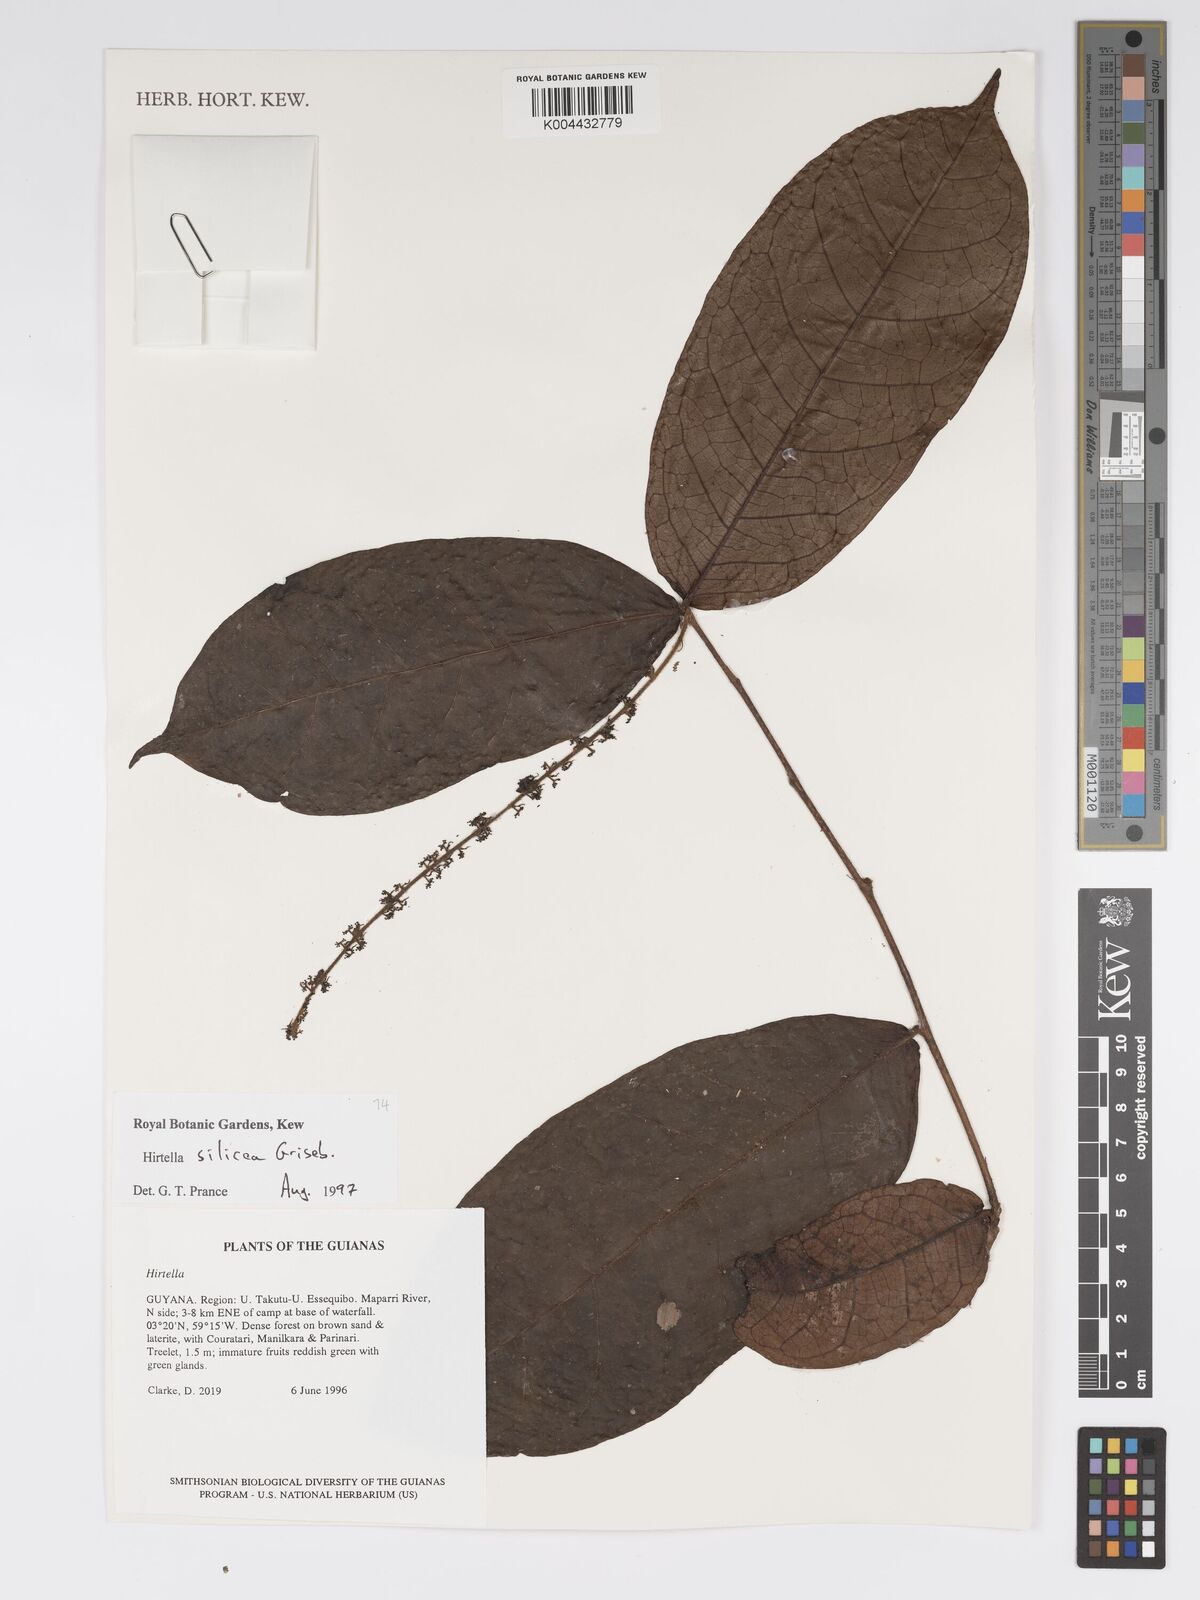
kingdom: Plantae
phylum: Tracheophyta
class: Magnoliopsida
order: Malpighiales
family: Chrysobalanaceae
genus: Hirtella
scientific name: Hirtella silicea
